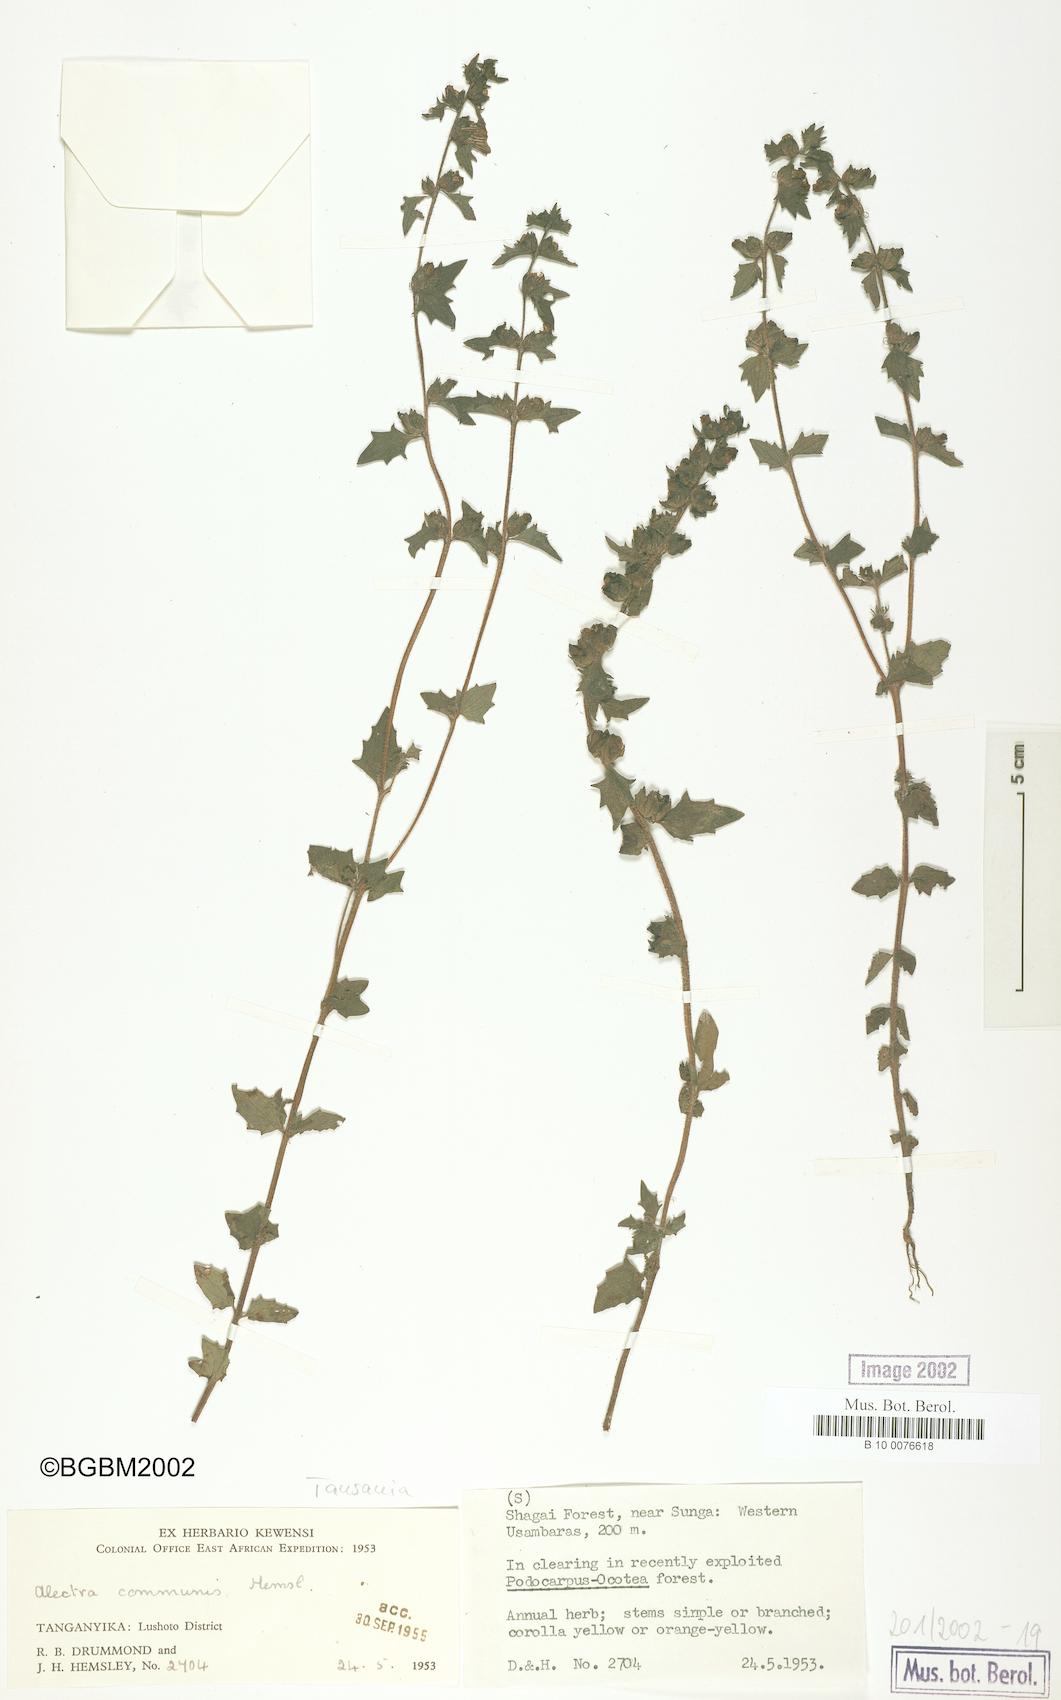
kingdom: Plantae
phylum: Tracheophyta
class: Magnoliopsida
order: Lamiales
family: Orobanchaceae
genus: Alectra
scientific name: Alectra sessiliflora
